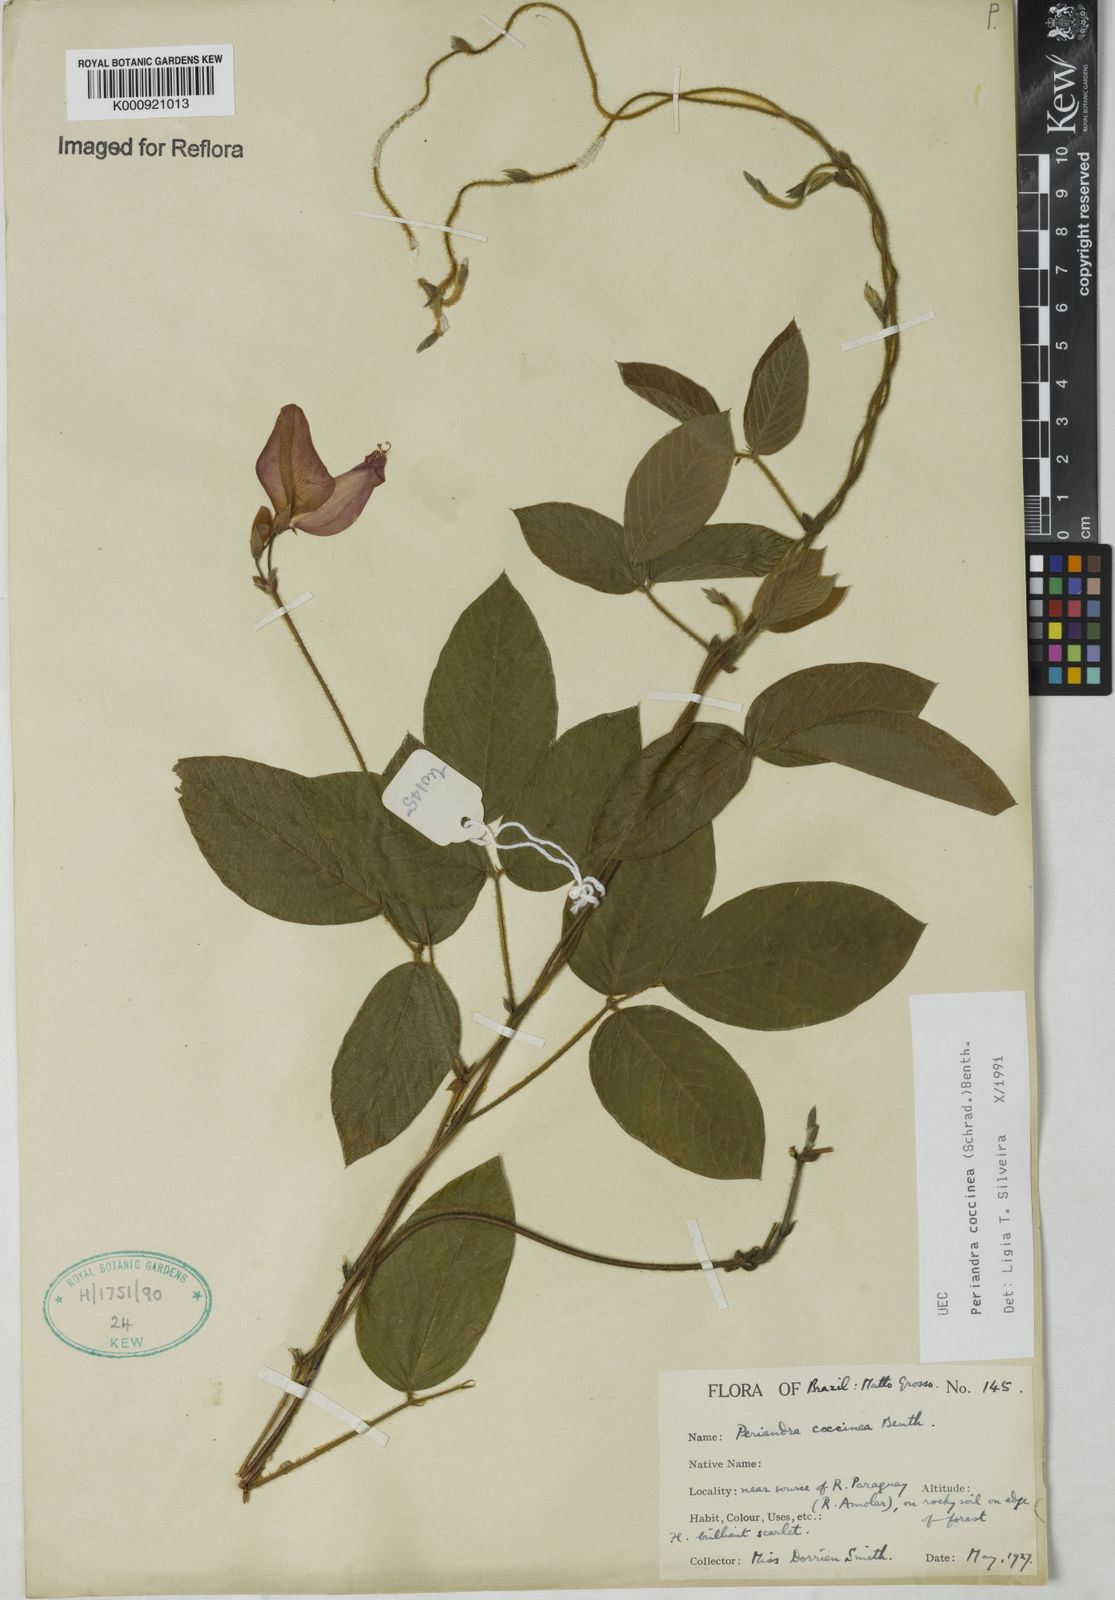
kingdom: Plantae
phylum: Tracheophyta
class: Magnoliopsida
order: Fabales
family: Fabaceae
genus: Periandra
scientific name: Periandra coccinea
